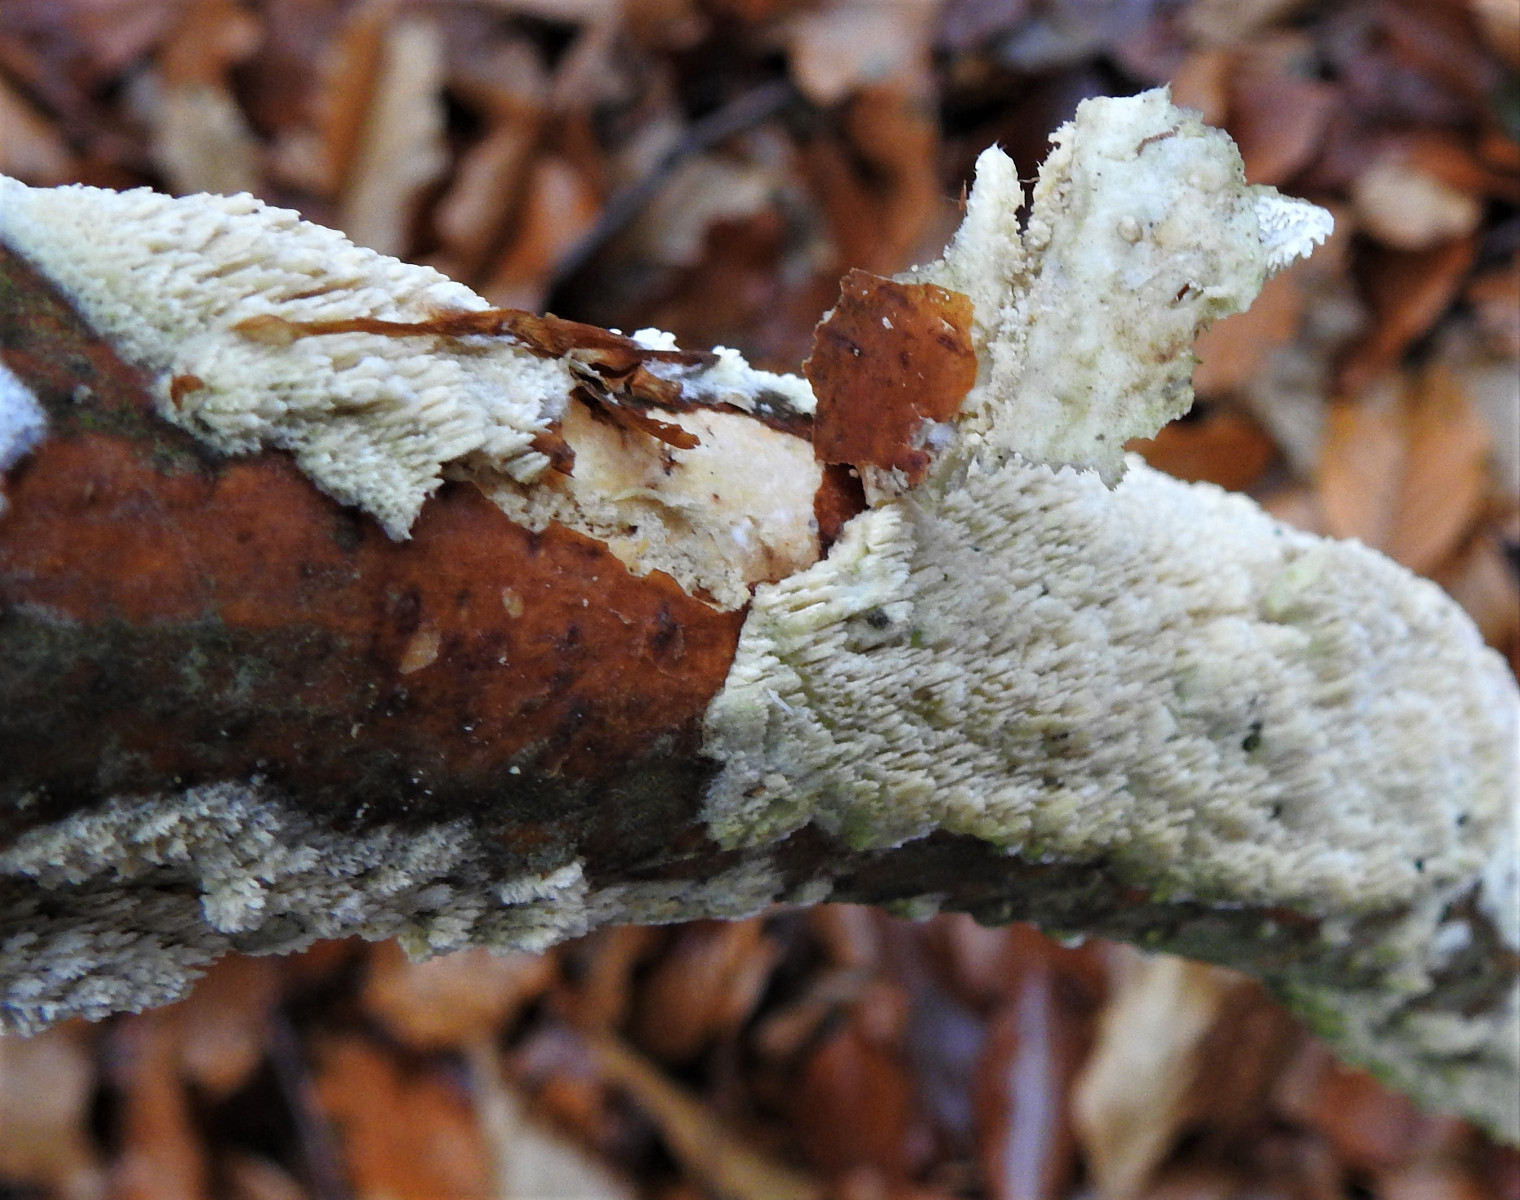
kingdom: Fungi
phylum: Basidiomycota
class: Agaricomycetes
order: Hymenochaetales
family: Schizoporaceae
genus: Schizopora
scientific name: Schizopora paradoxa
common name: hvid tandsvamp
